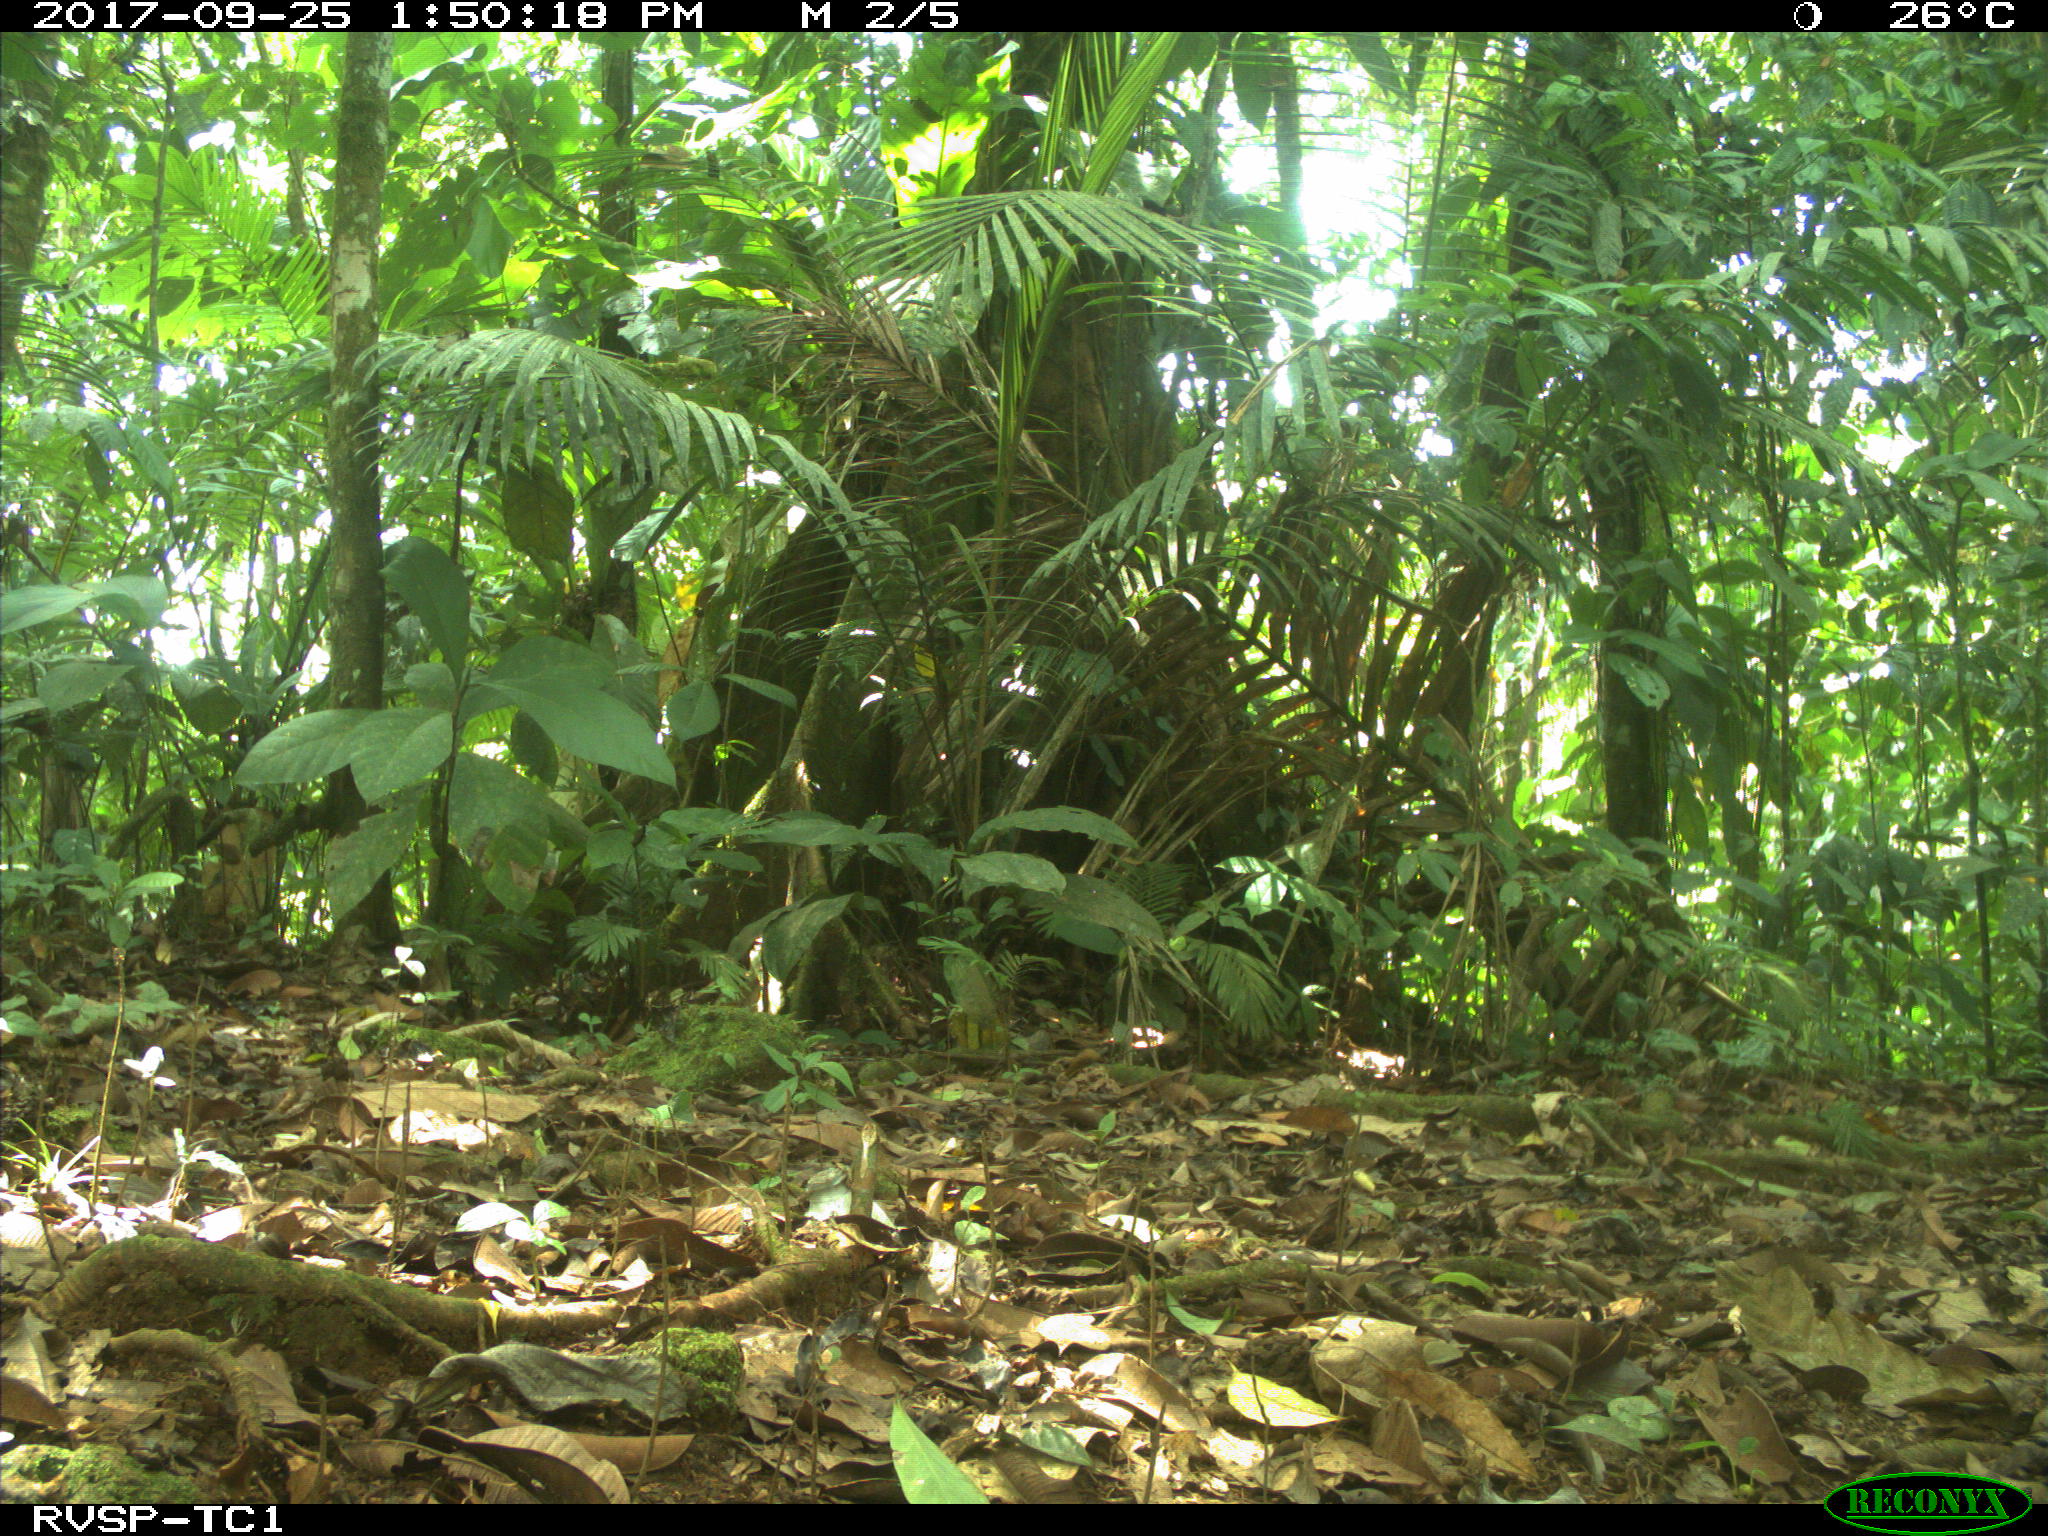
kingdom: Animalia
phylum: Chordata
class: Mammalia
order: Rodentia
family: Dasyproctidae
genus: Dasyprocta
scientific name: Dasyprocta punctata
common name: Central american agouti
